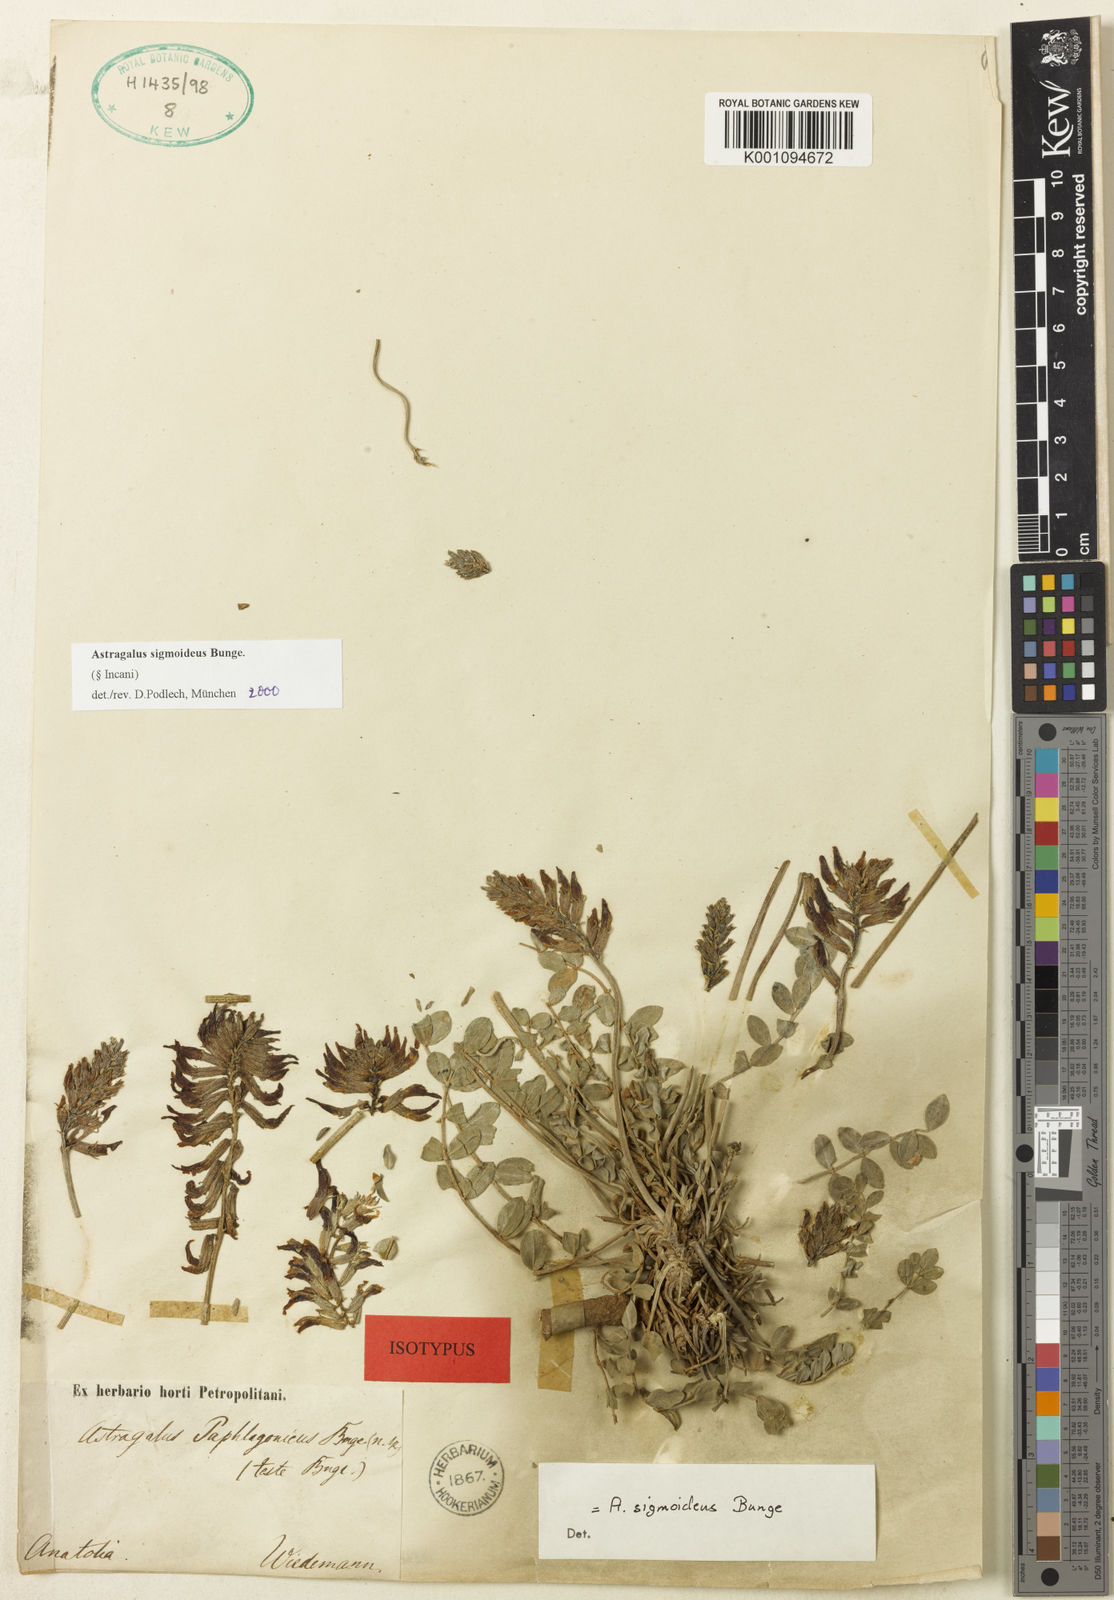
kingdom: Plantae
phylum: Tracheophyta
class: Magnoliopsida
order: Fabales
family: Fabaceae
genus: Astragalus
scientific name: Astragalus
